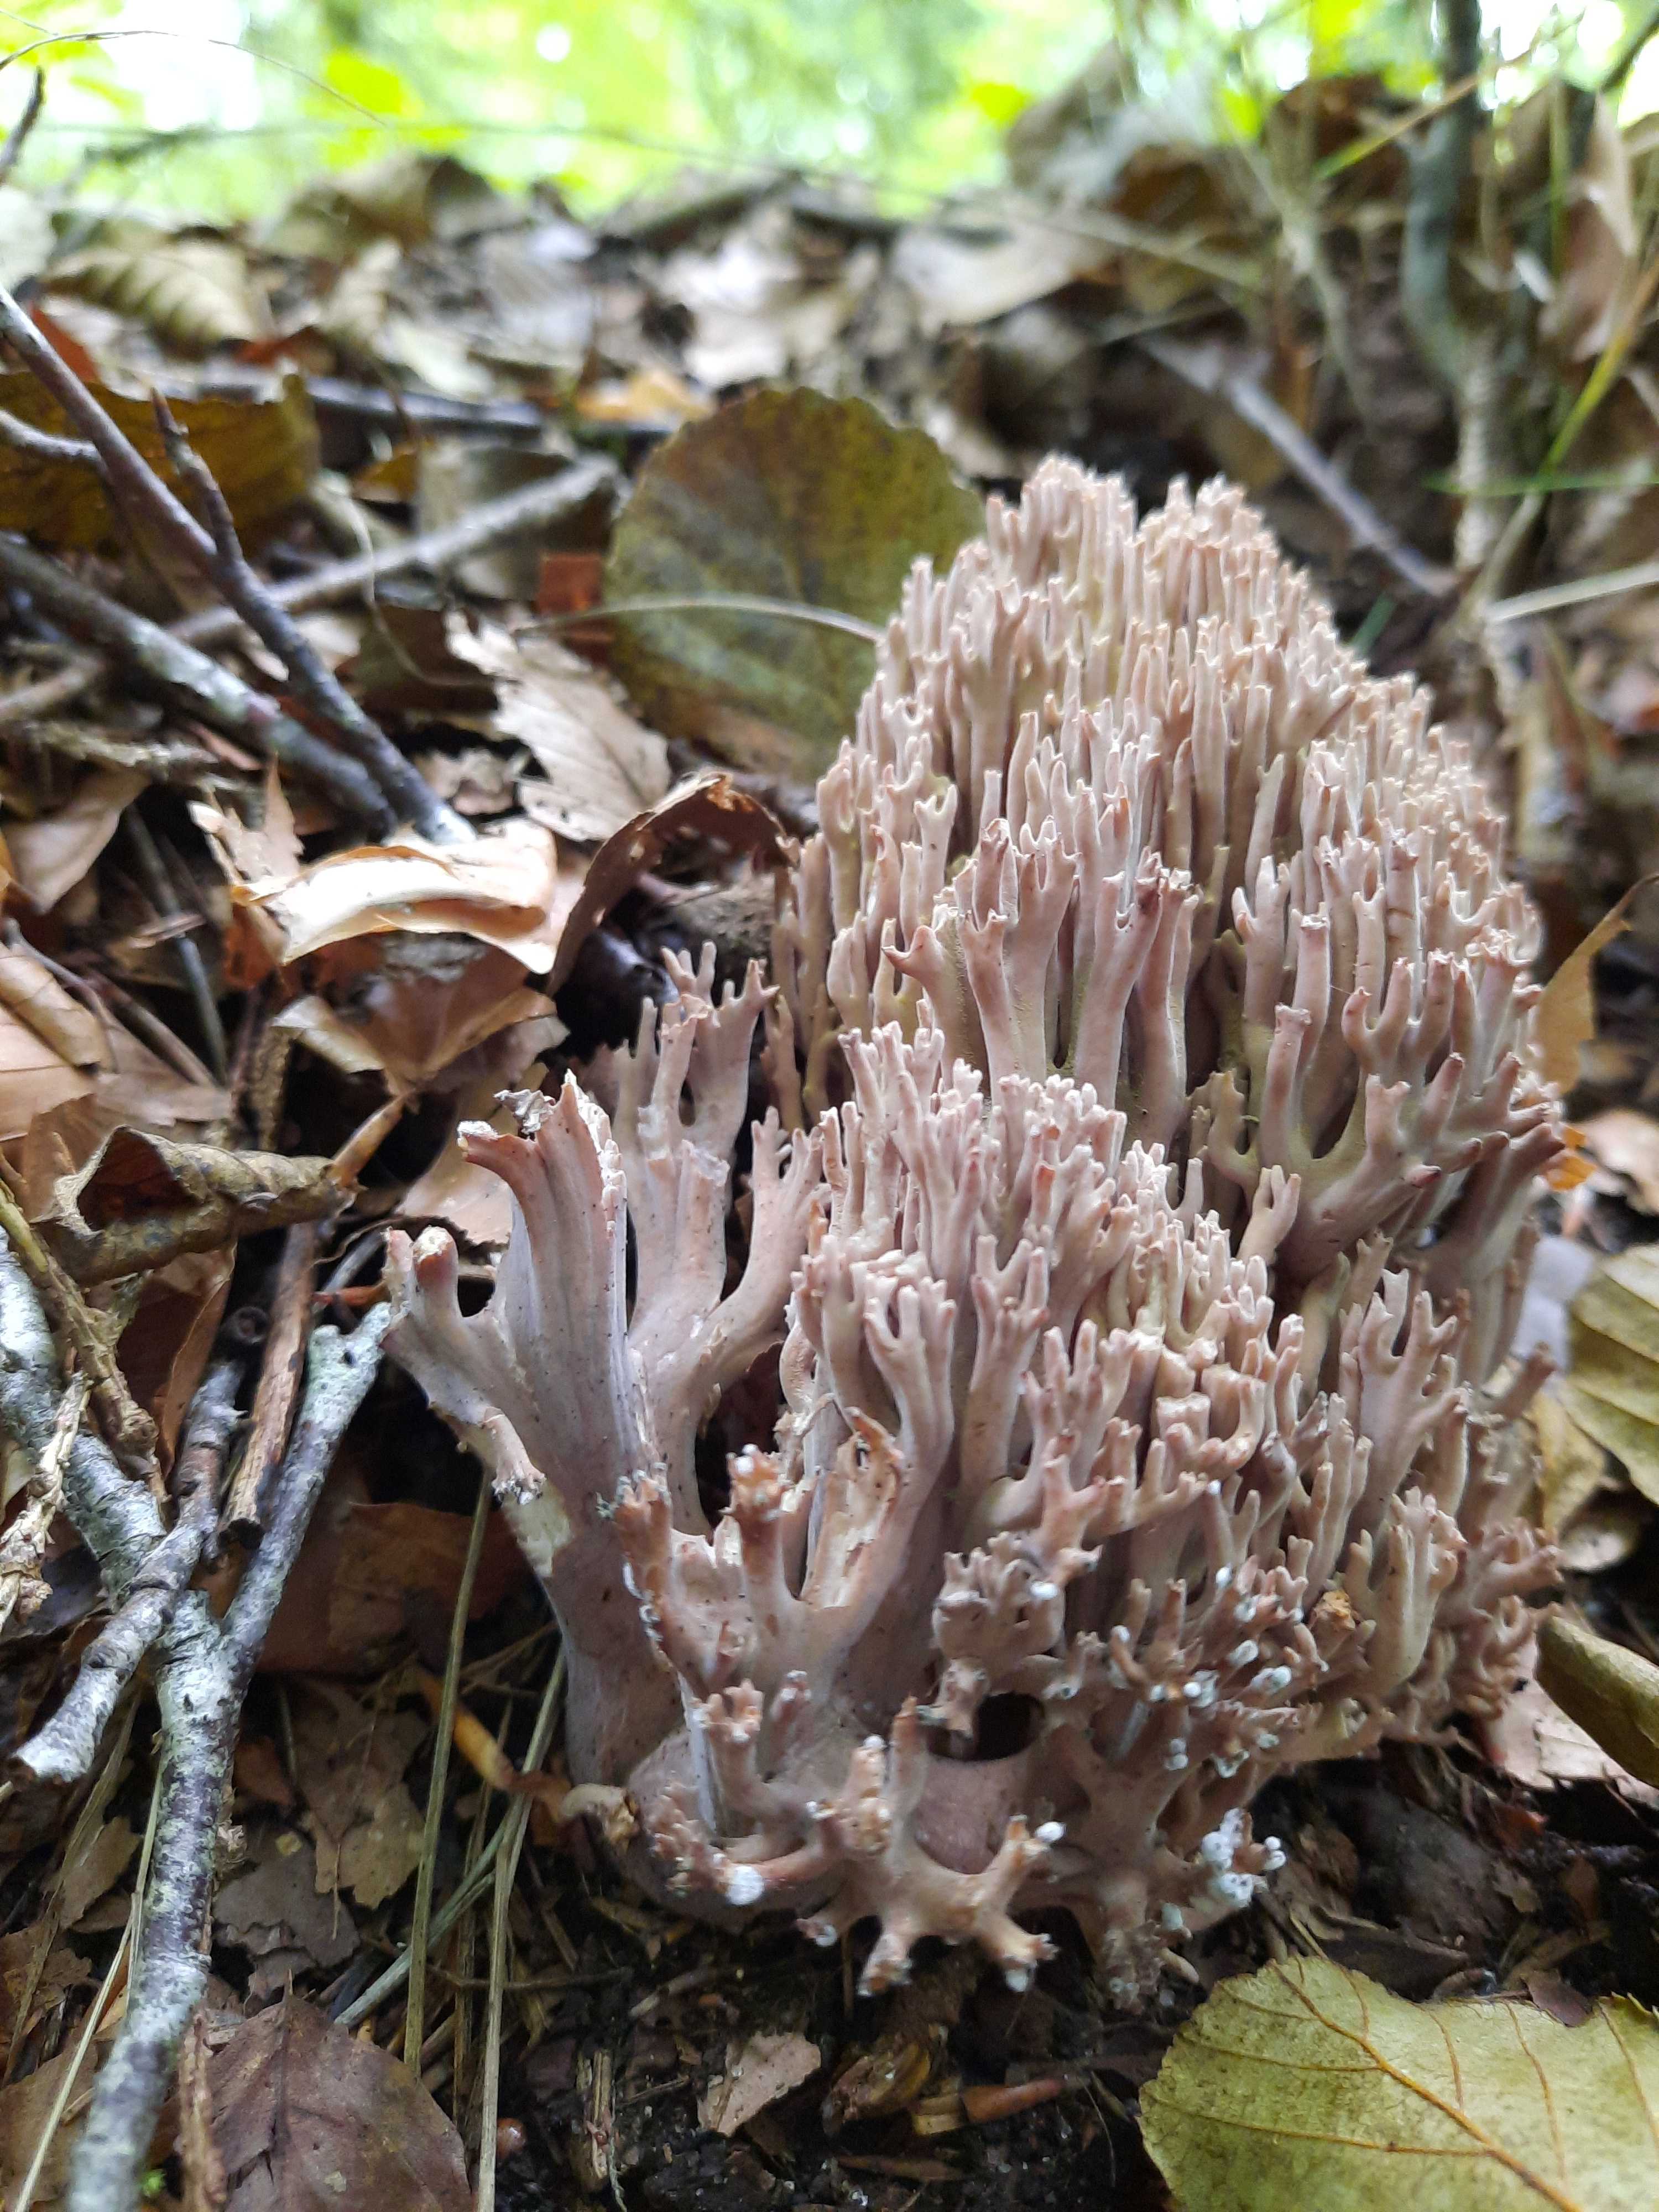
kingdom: Fungi
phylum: Basidiomycota
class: Agaricomycetes
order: Gomphales
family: Gomphaceae
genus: Ramaria
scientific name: Ramaria fumigata
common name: violet koralsvamp
